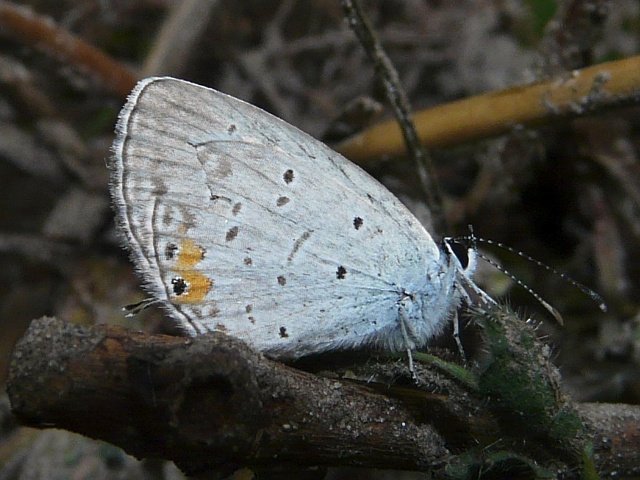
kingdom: Animalia
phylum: Arthropoda
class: Insecta
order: Lepidoptera
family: Lycaenidae
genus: Elkalyce
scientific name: Elkalyce comyntas
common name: Eastern Tailed-Blue
